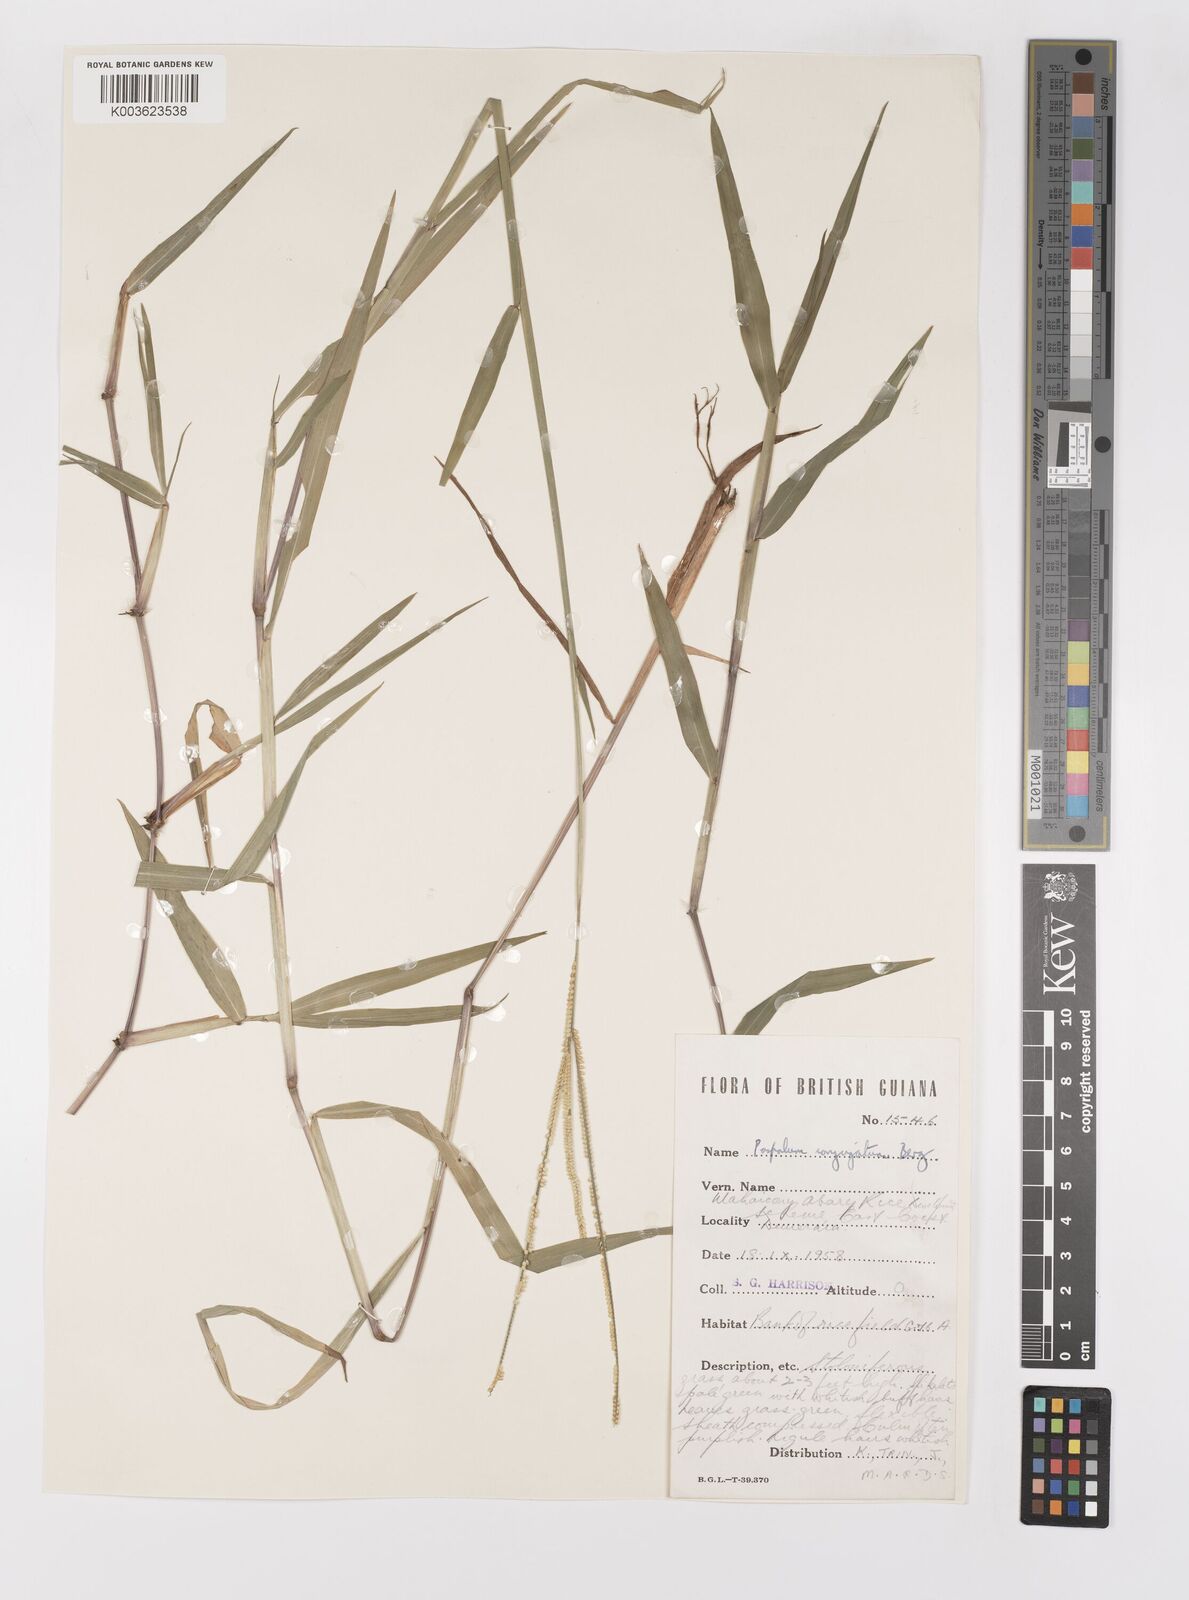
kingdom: Plantae
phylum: Tracheophyta
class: Liliopsida
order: Poales
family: Poaceae
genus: Paspalum
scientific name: Paspalum conjugatum
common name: Hilograss
